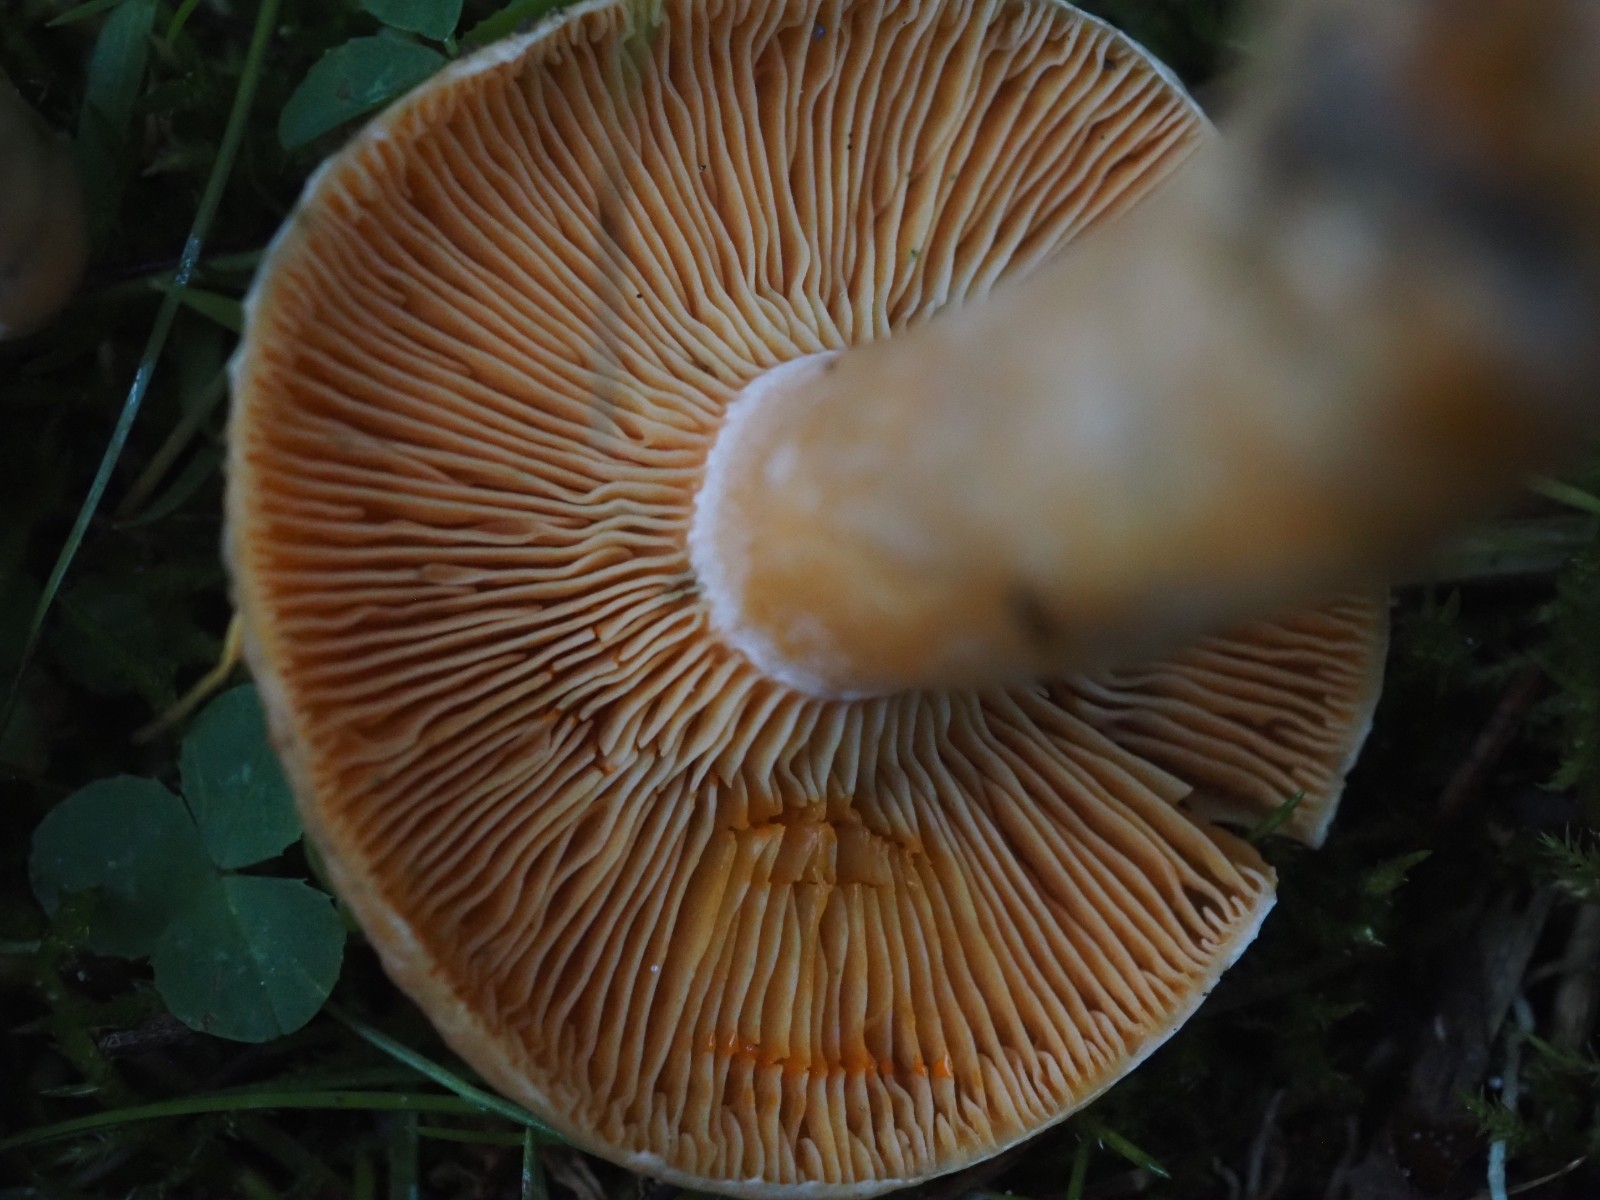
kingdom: Fungi
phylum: Basidiomycota
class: Agaricomycetes
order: Russulales
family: Russulaceae
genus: Lactarius
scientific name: Lactarius deterrimus
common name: gran-mælkehat
